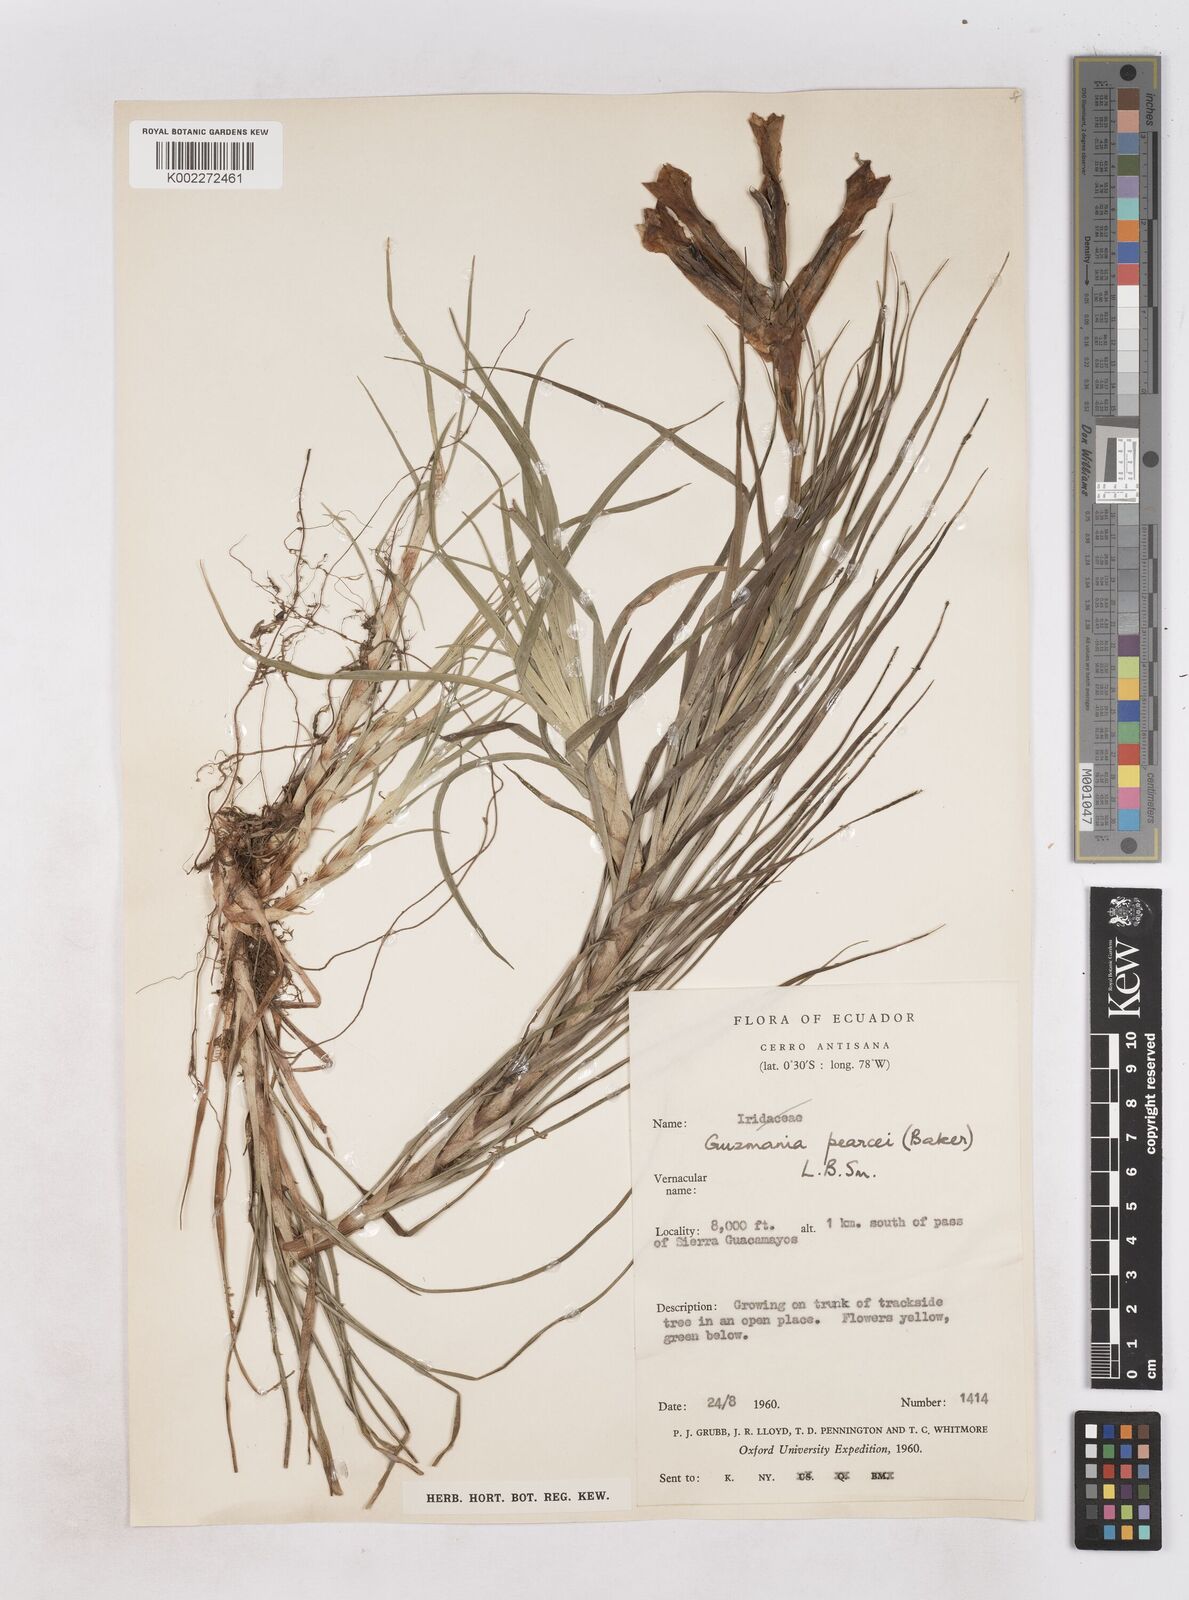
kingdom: Plantae
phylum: Tracheophyta
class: Liliopsida
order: Poales
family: Bromeliaceae
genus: Guzmania
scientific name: Guzmania pearcei
